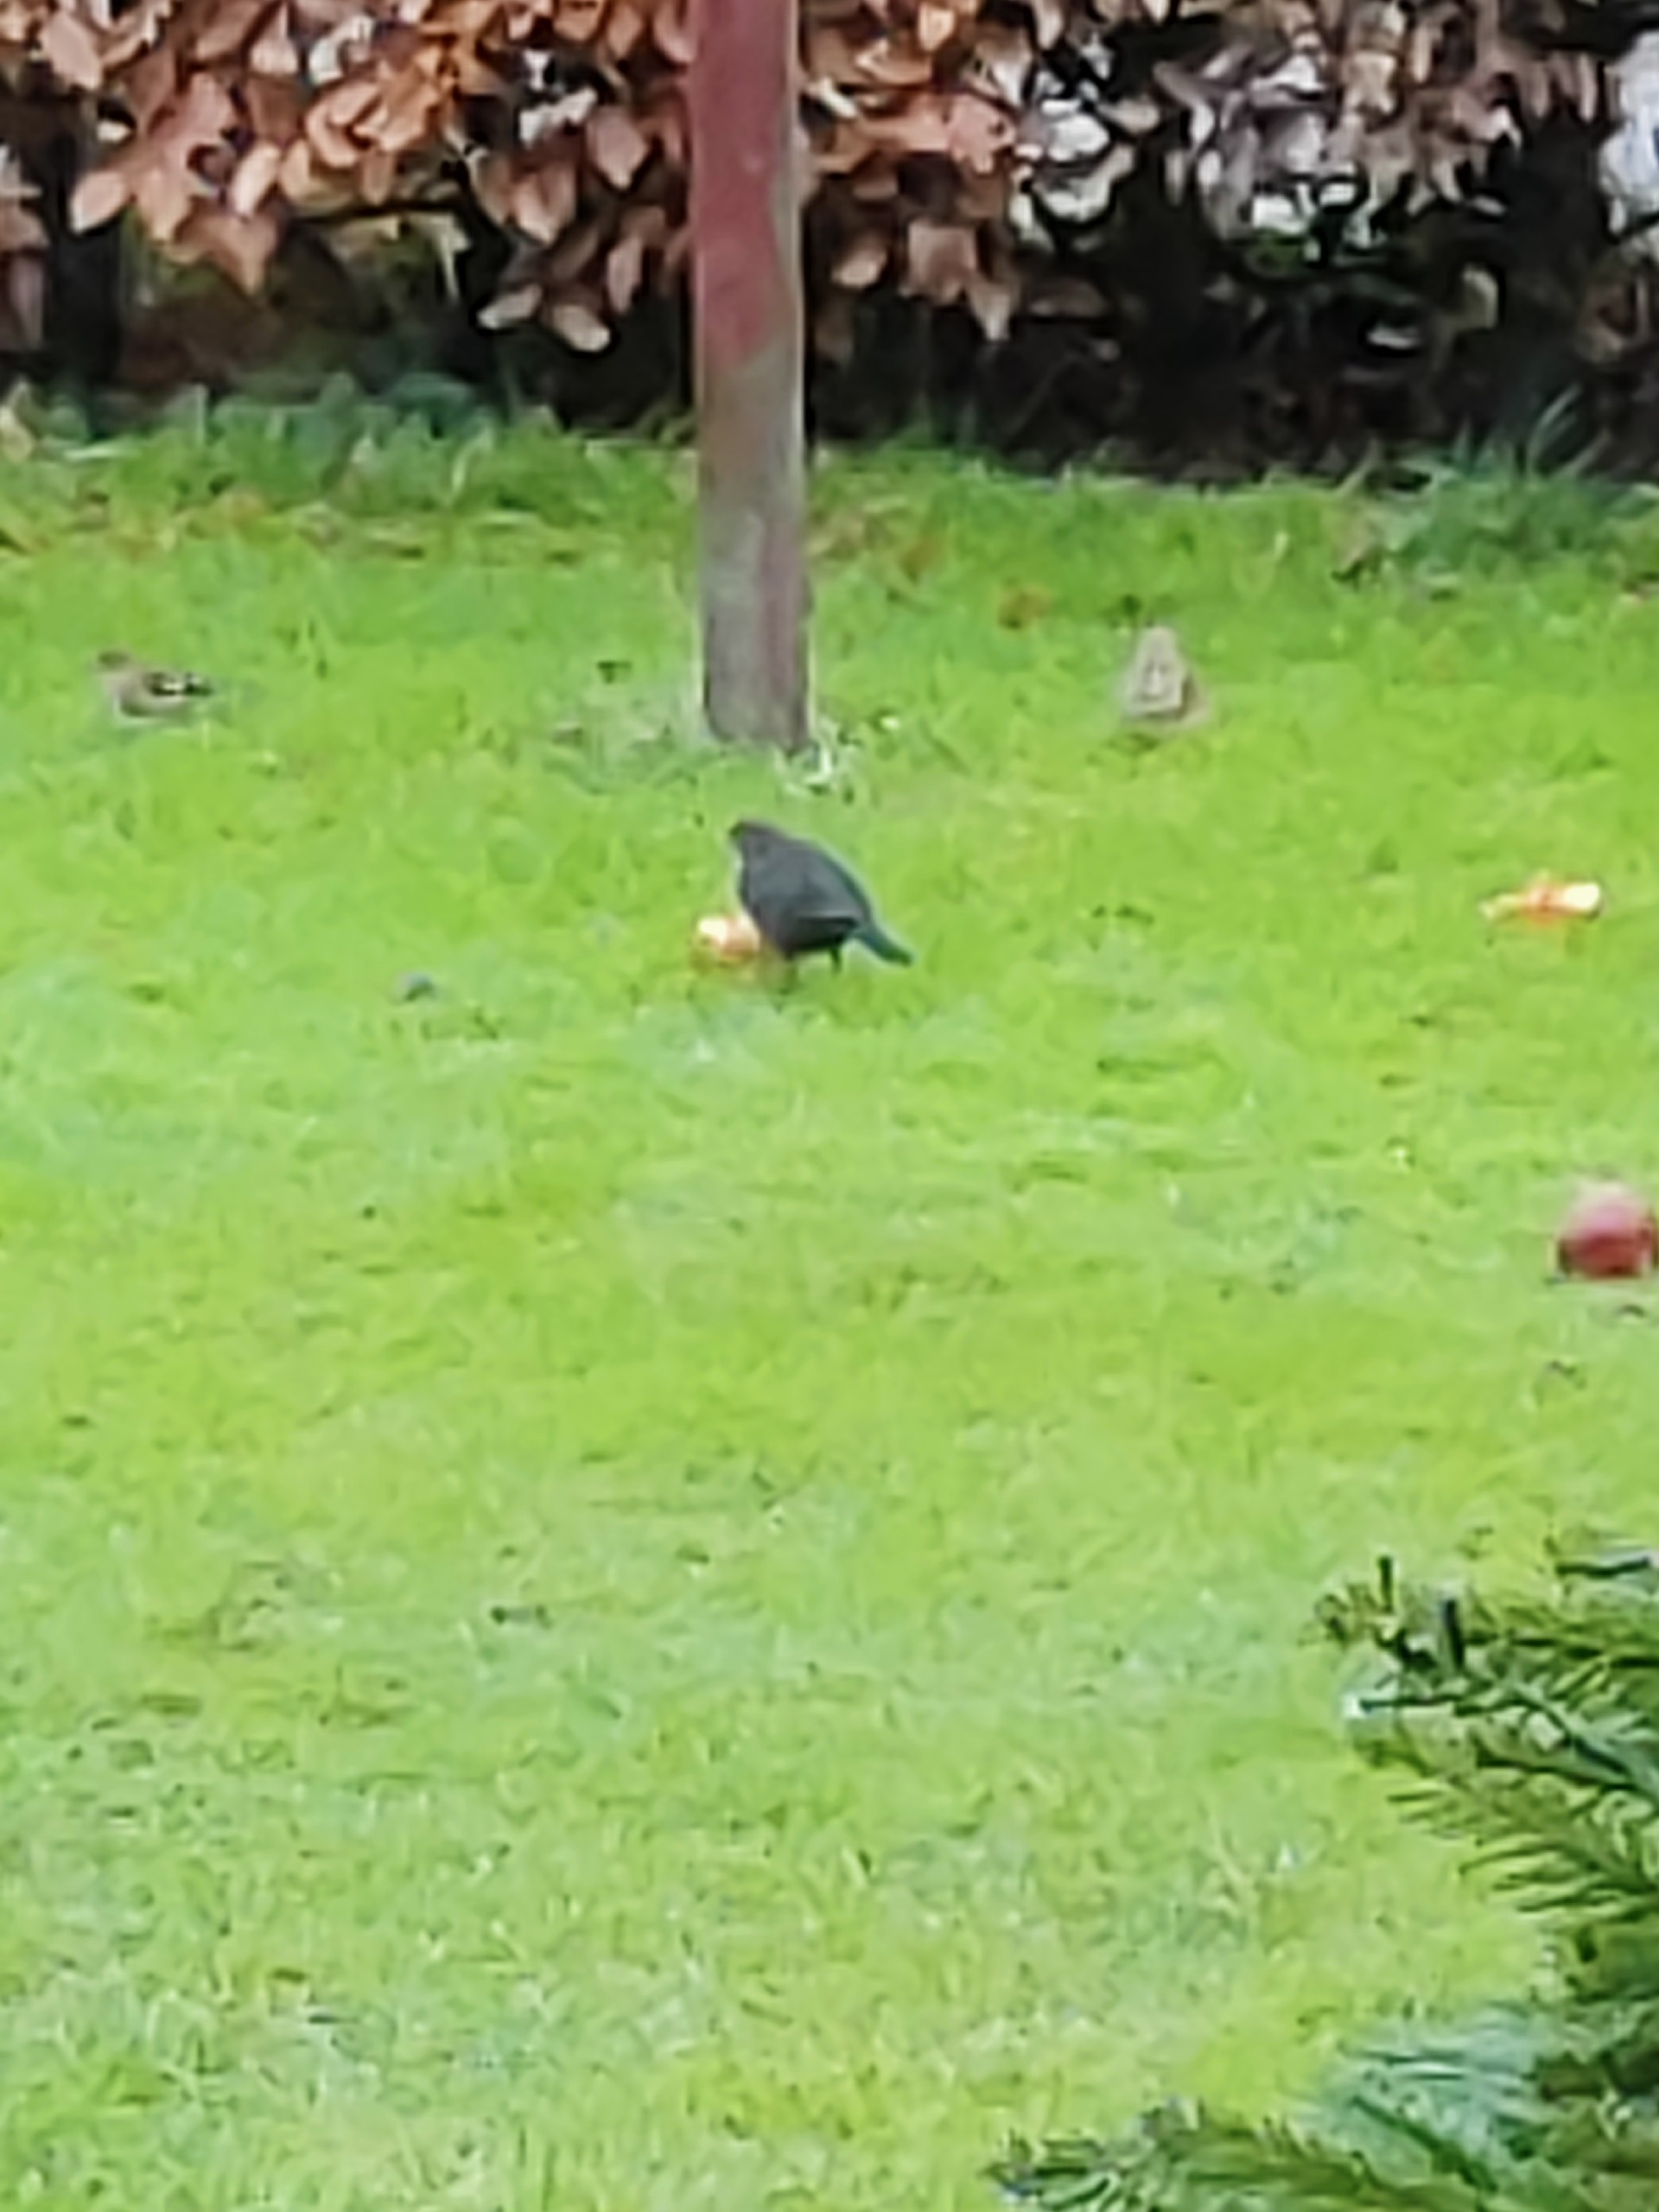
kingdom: Animalia
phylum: Chordata
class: Aves
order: Passeriformes
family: Turdidae
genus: Turdus
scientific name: Turdus merula
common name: Solsort
